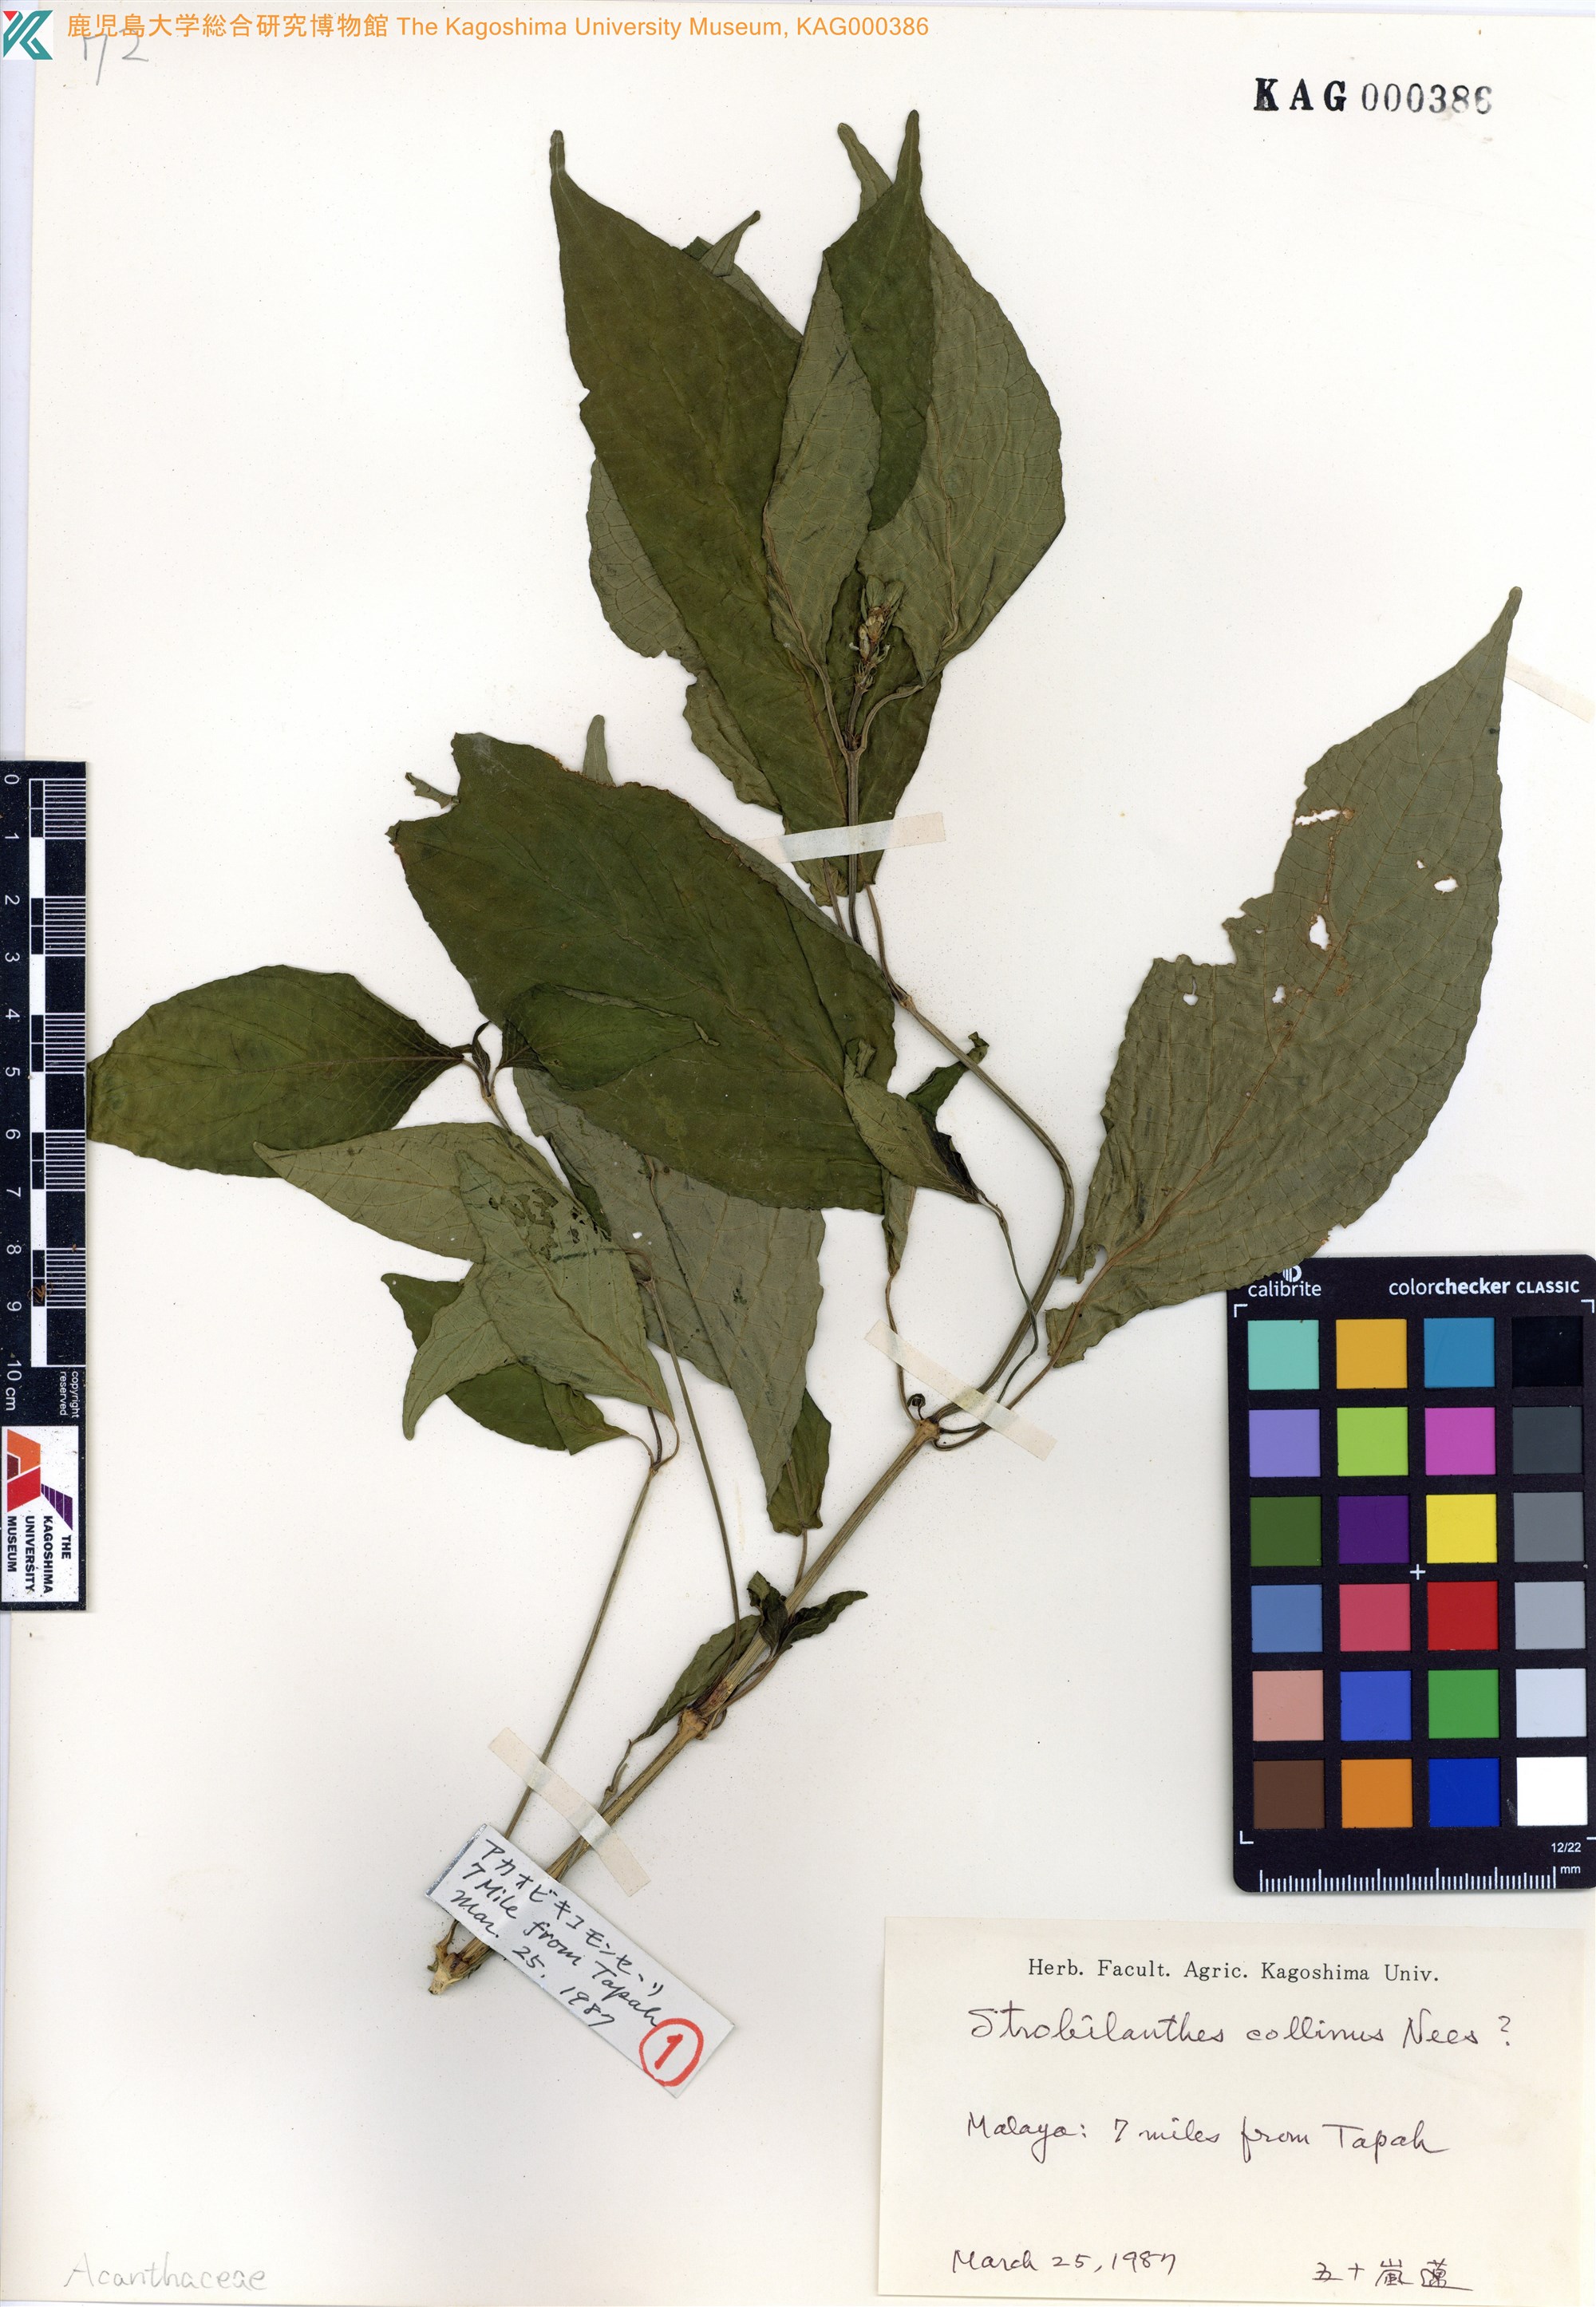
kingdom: Plantae
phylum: Tracheophyta
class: Magnoliopsida
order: Lamiales
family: Acanthaceae
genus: Strobilanthes
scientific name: Strobilanthes collina
